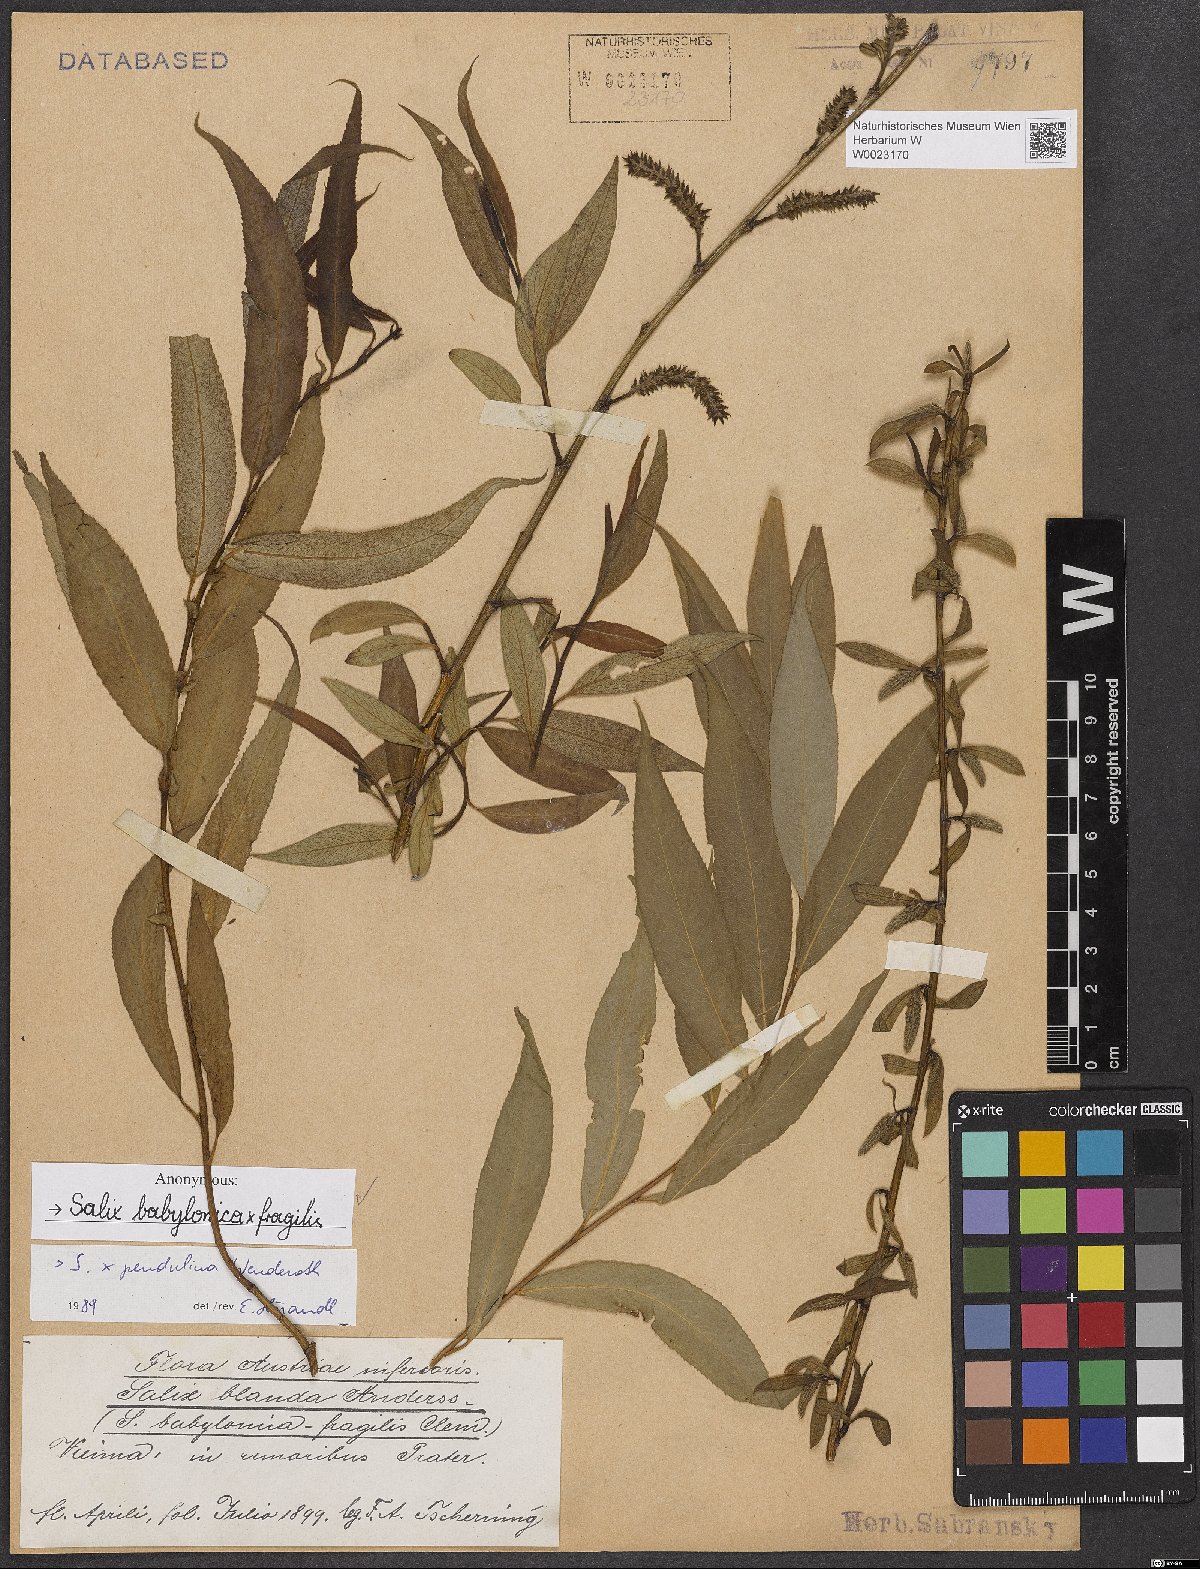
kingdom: Plantae
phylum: Tracheophyta
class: Magnoliopsida
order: Malpighiales
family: Salicaceae
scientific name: Salicaceae
